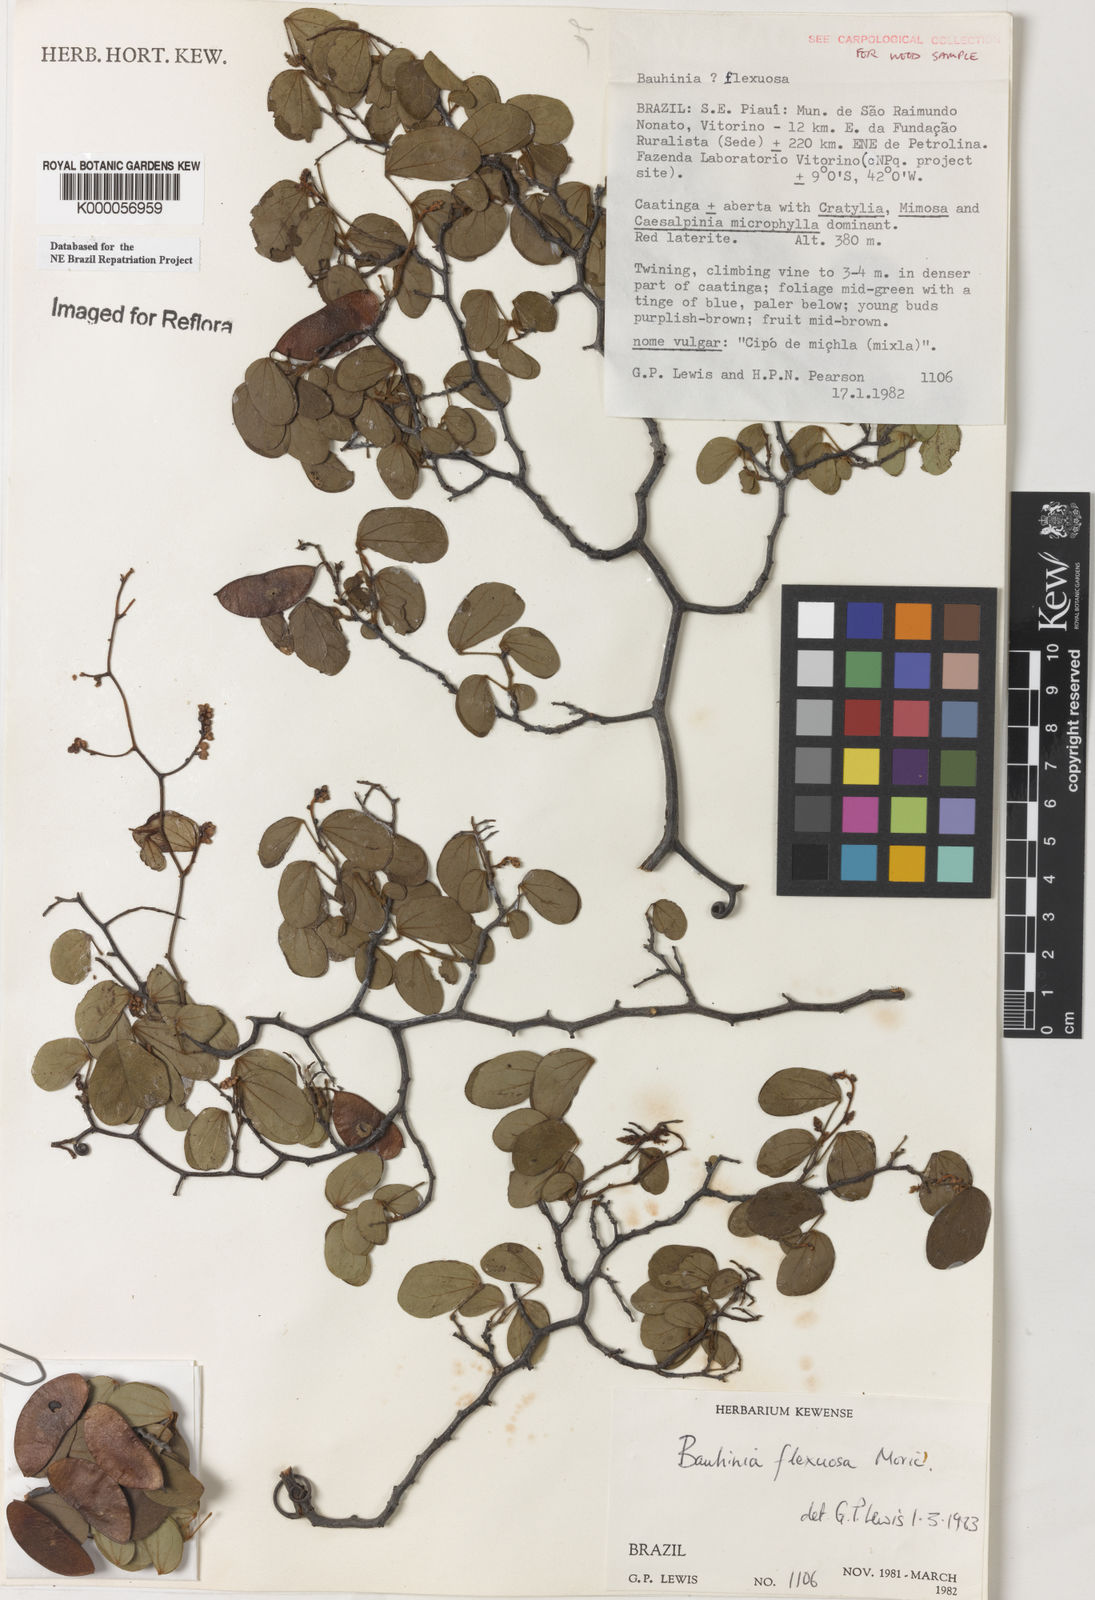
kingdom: Plantae
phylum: Tracheophyta
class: Magnoliopsida
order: Fabales
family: Fabaceae
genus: Schnella
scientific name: Schnella flexuosa
